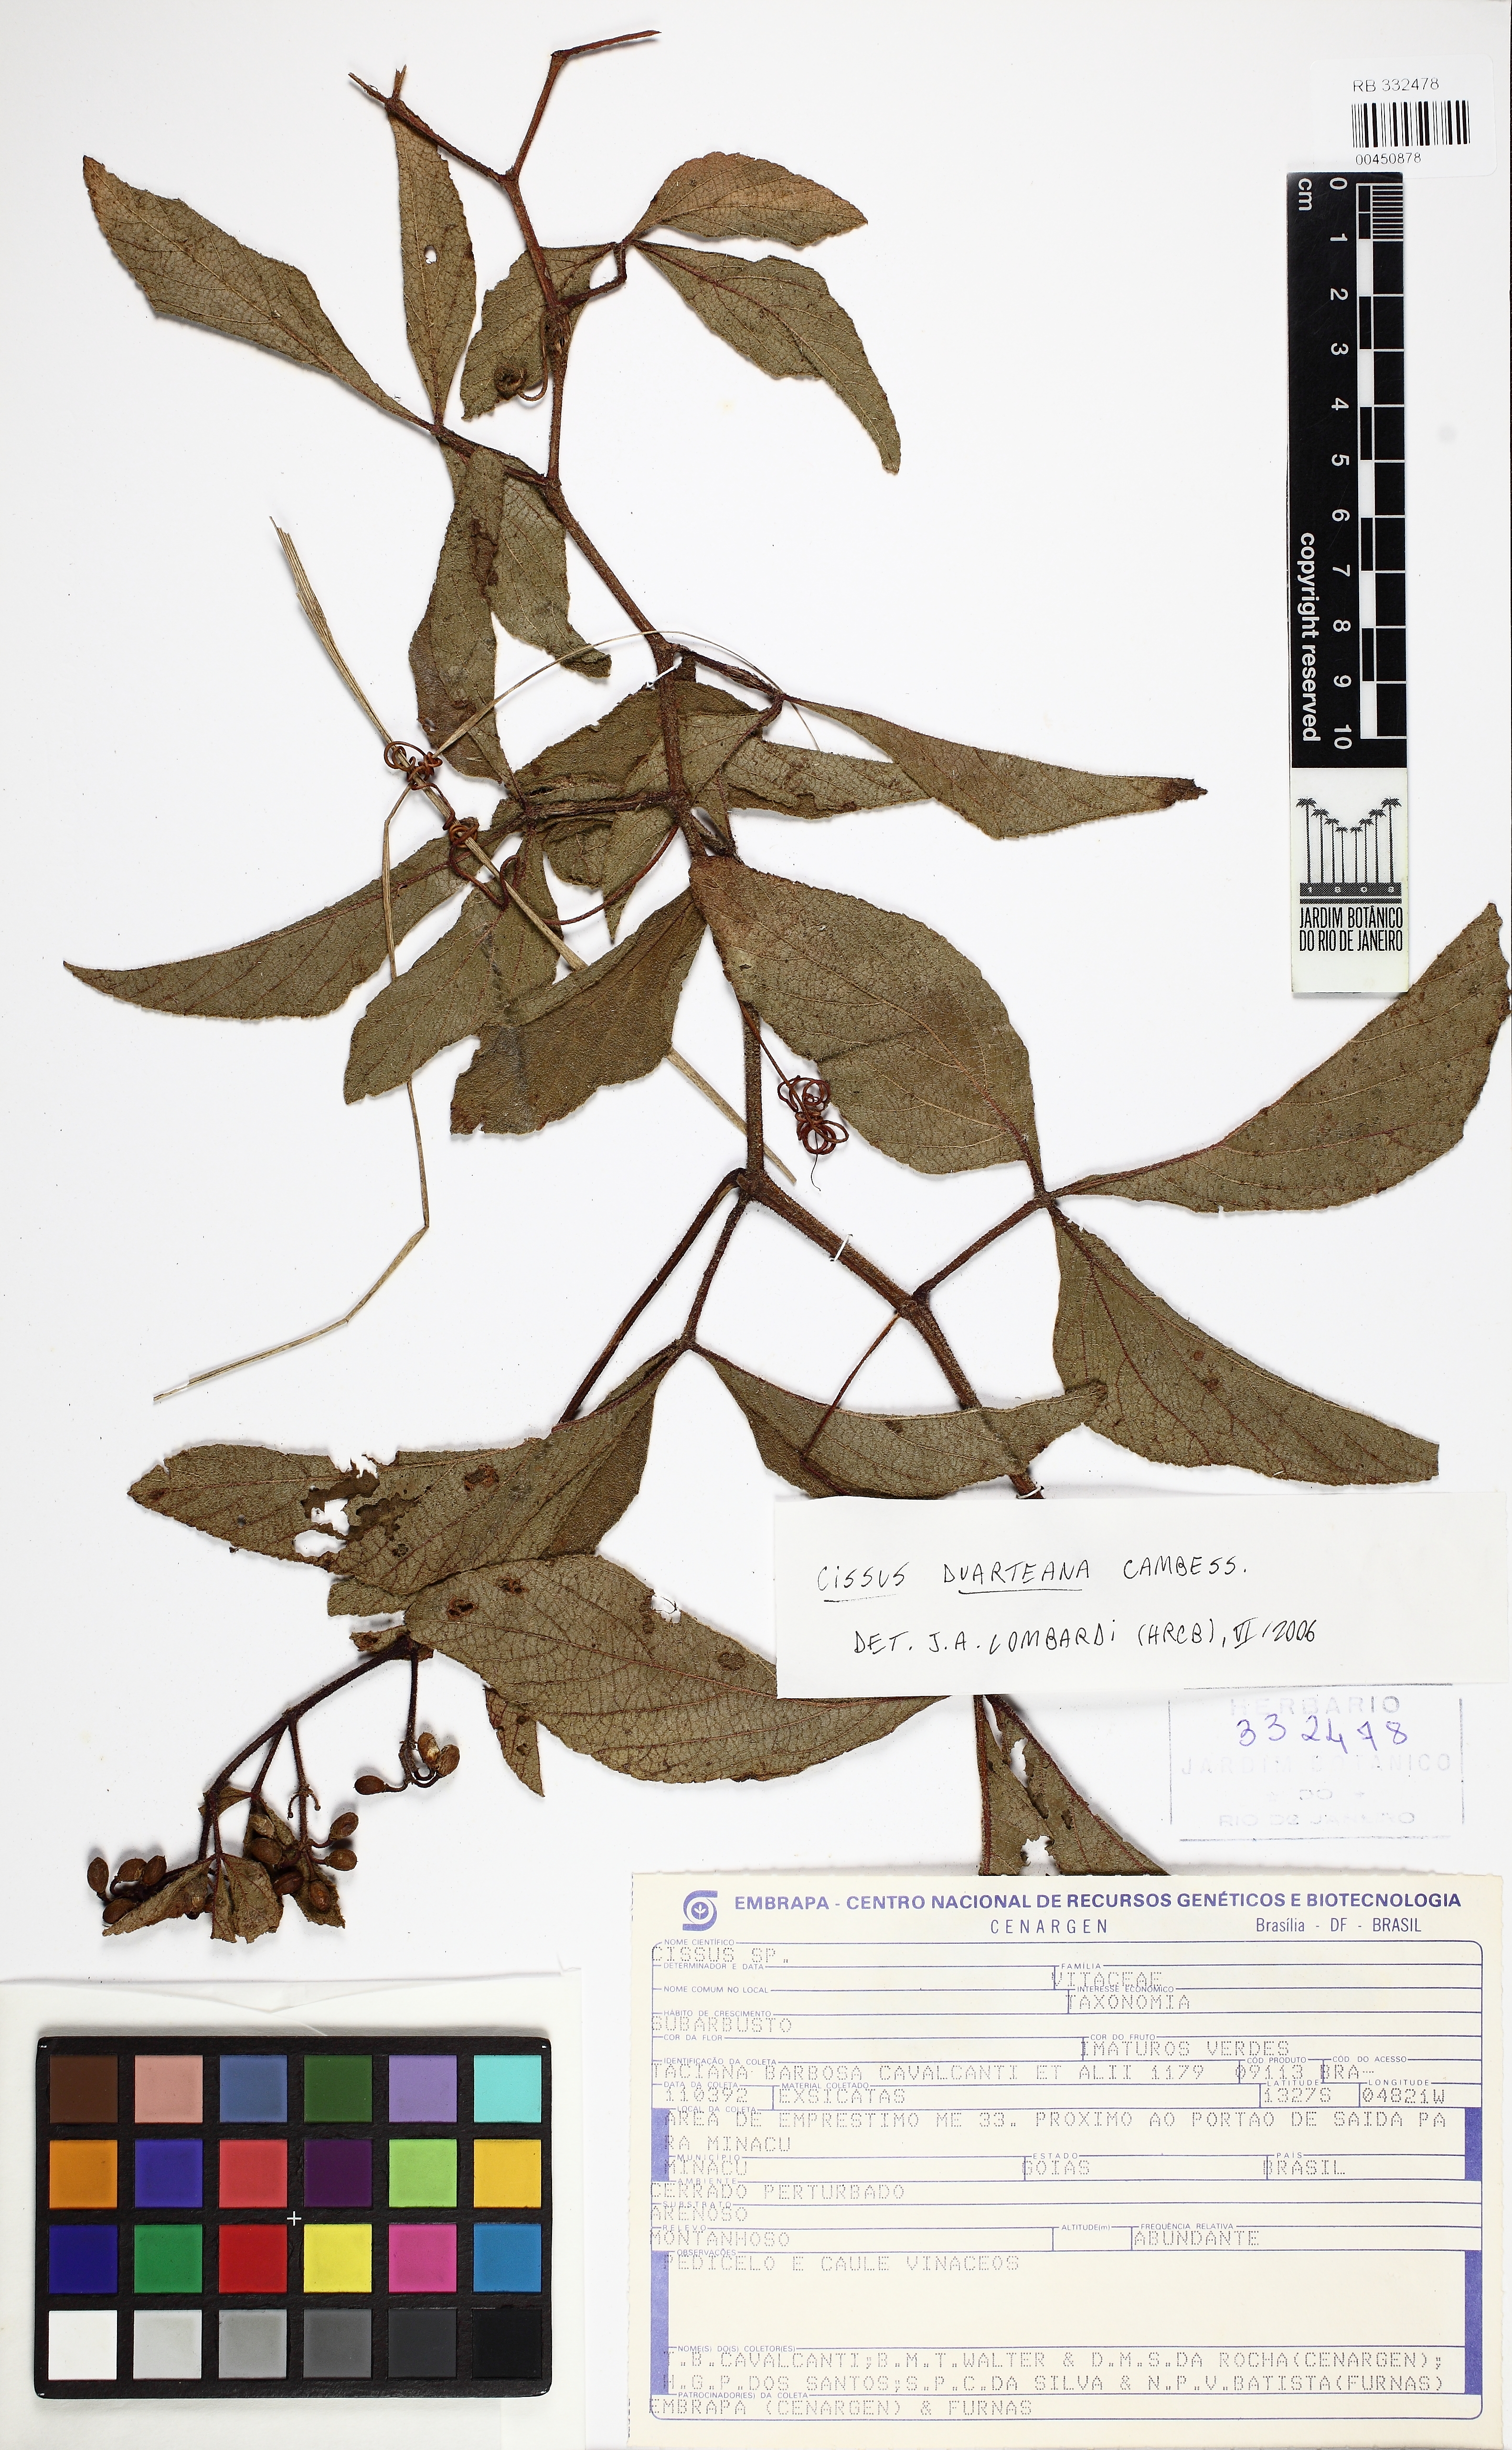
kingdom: Plantae
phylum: Tracheophyta
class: Magnoliopsida
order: Vitales
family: Vitaceae
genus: Cissus
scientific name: Cissus duarteana
